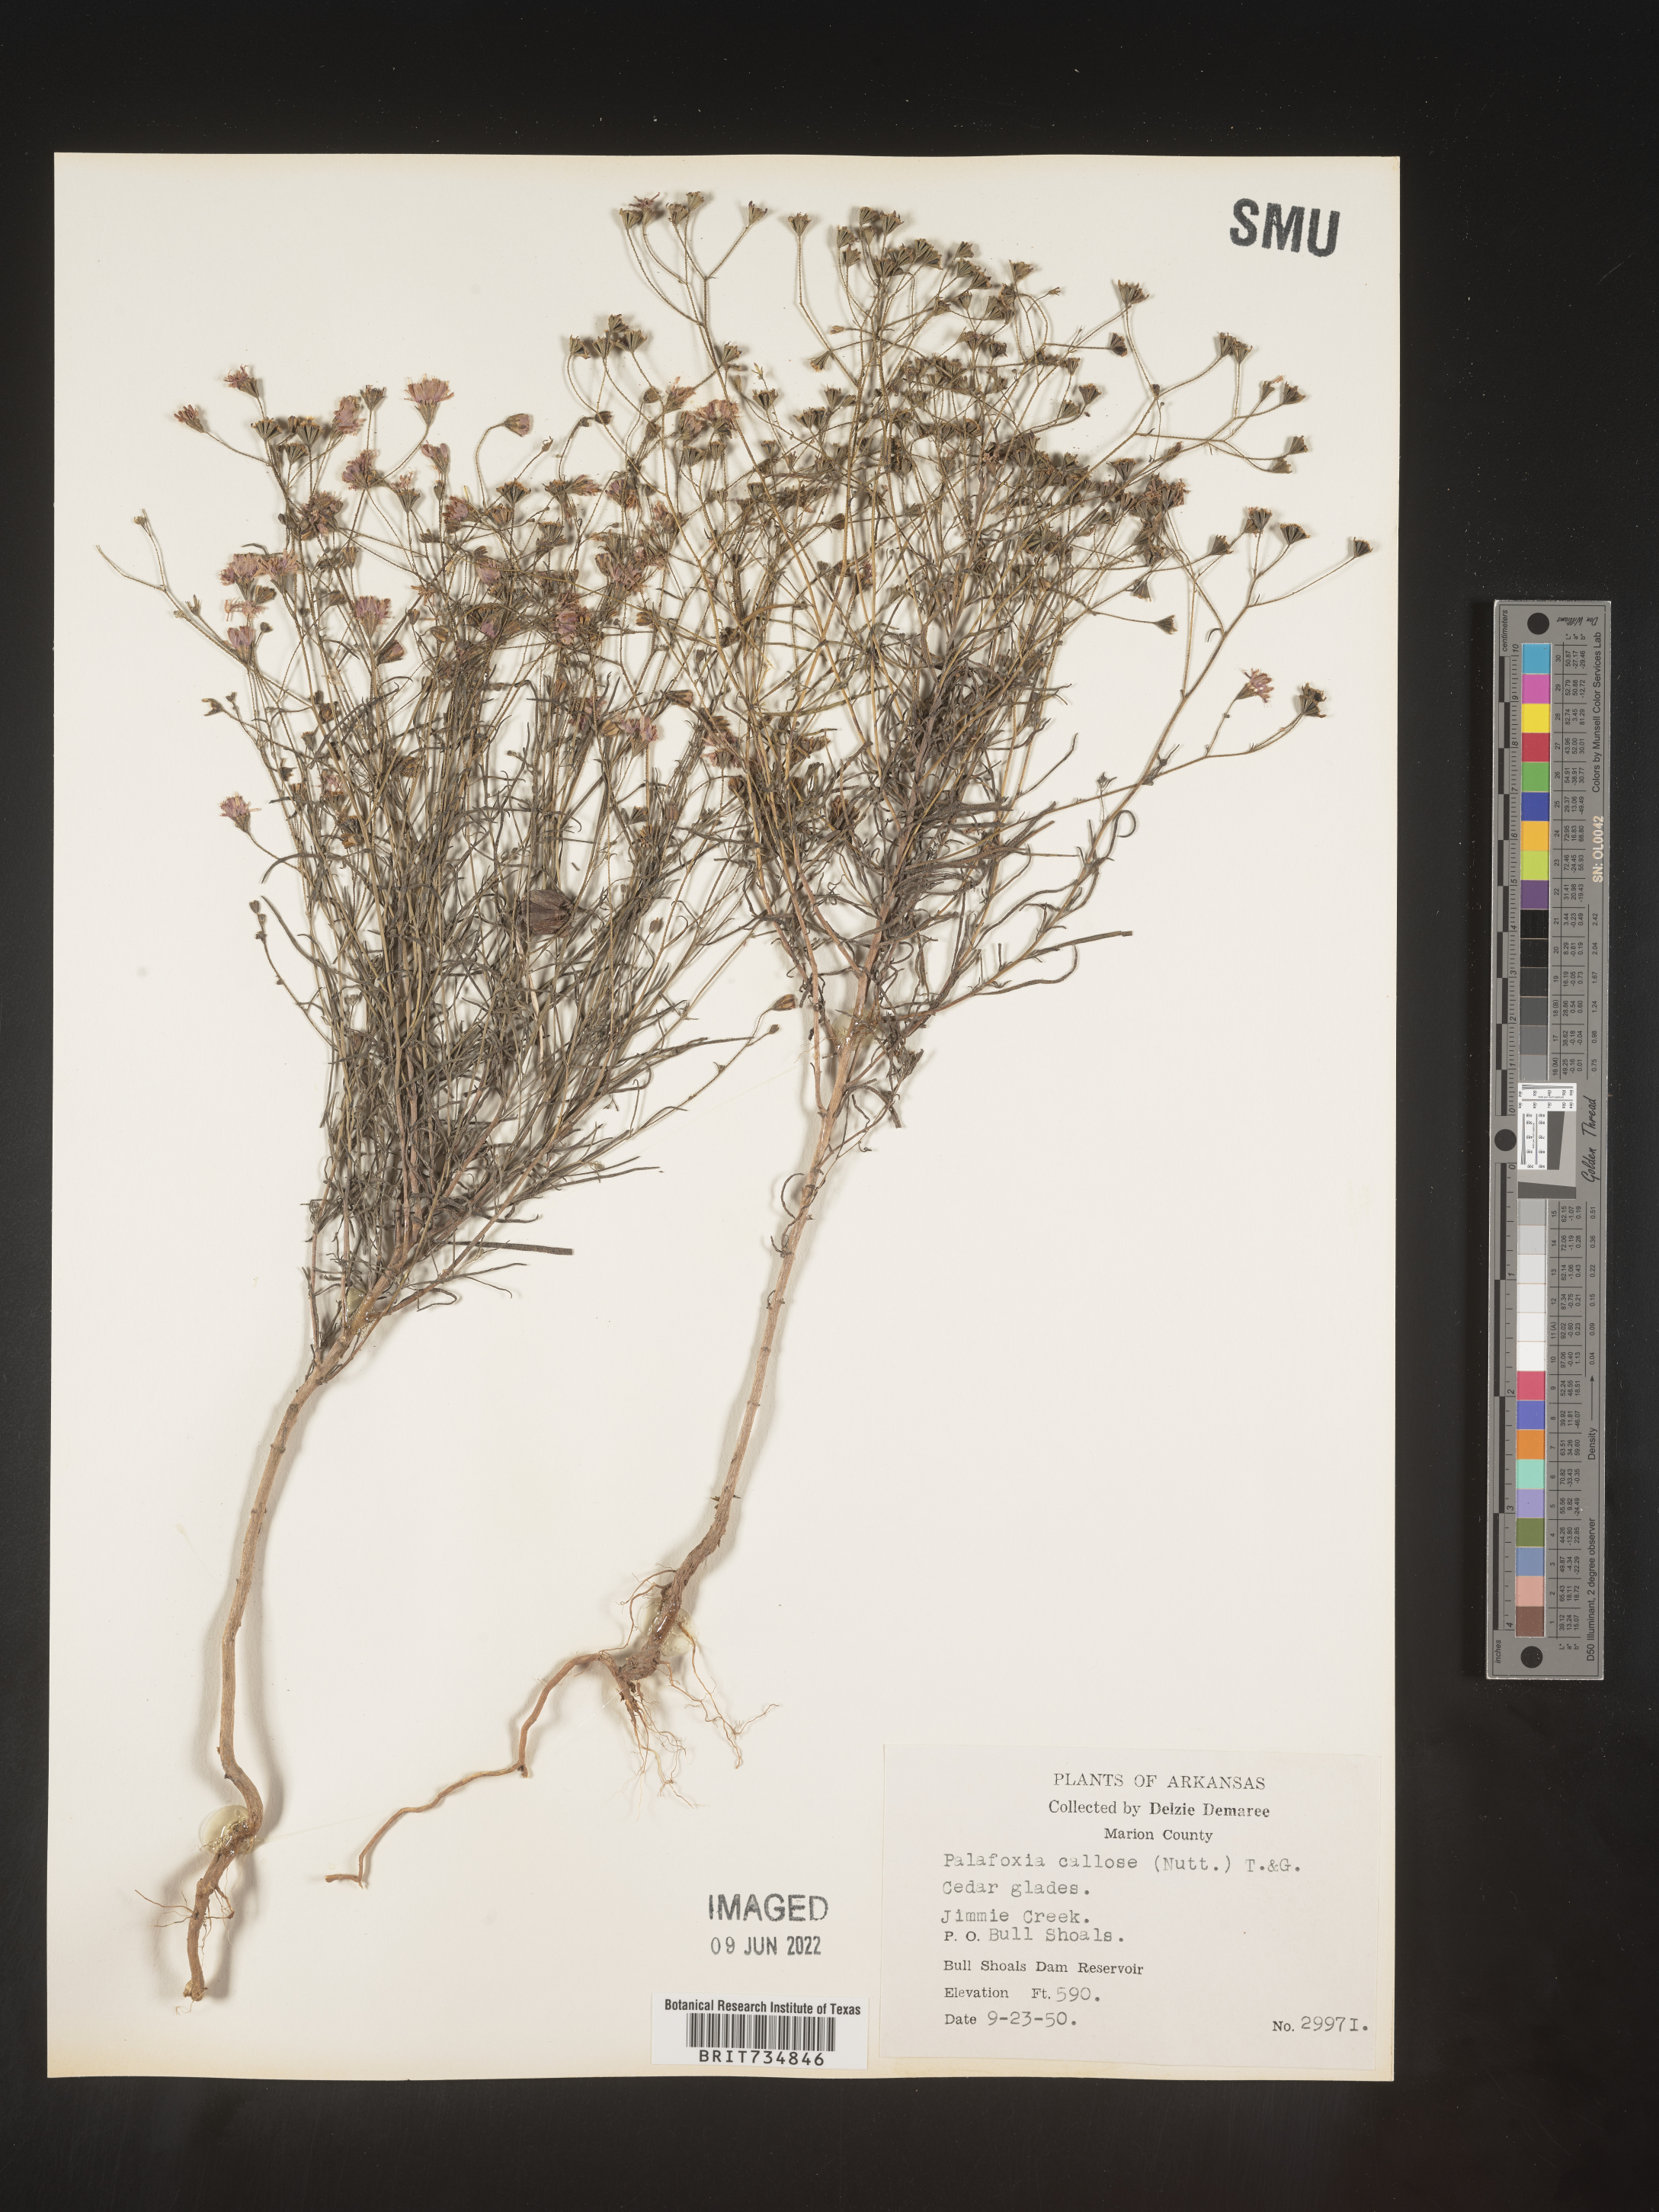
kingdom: Plantae
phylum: Tracheophyta
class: Magnoliopsida
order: Asterales
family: Asteraceae
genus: Palafoxia
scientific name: Palafoxia callosa
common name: Small palafox
